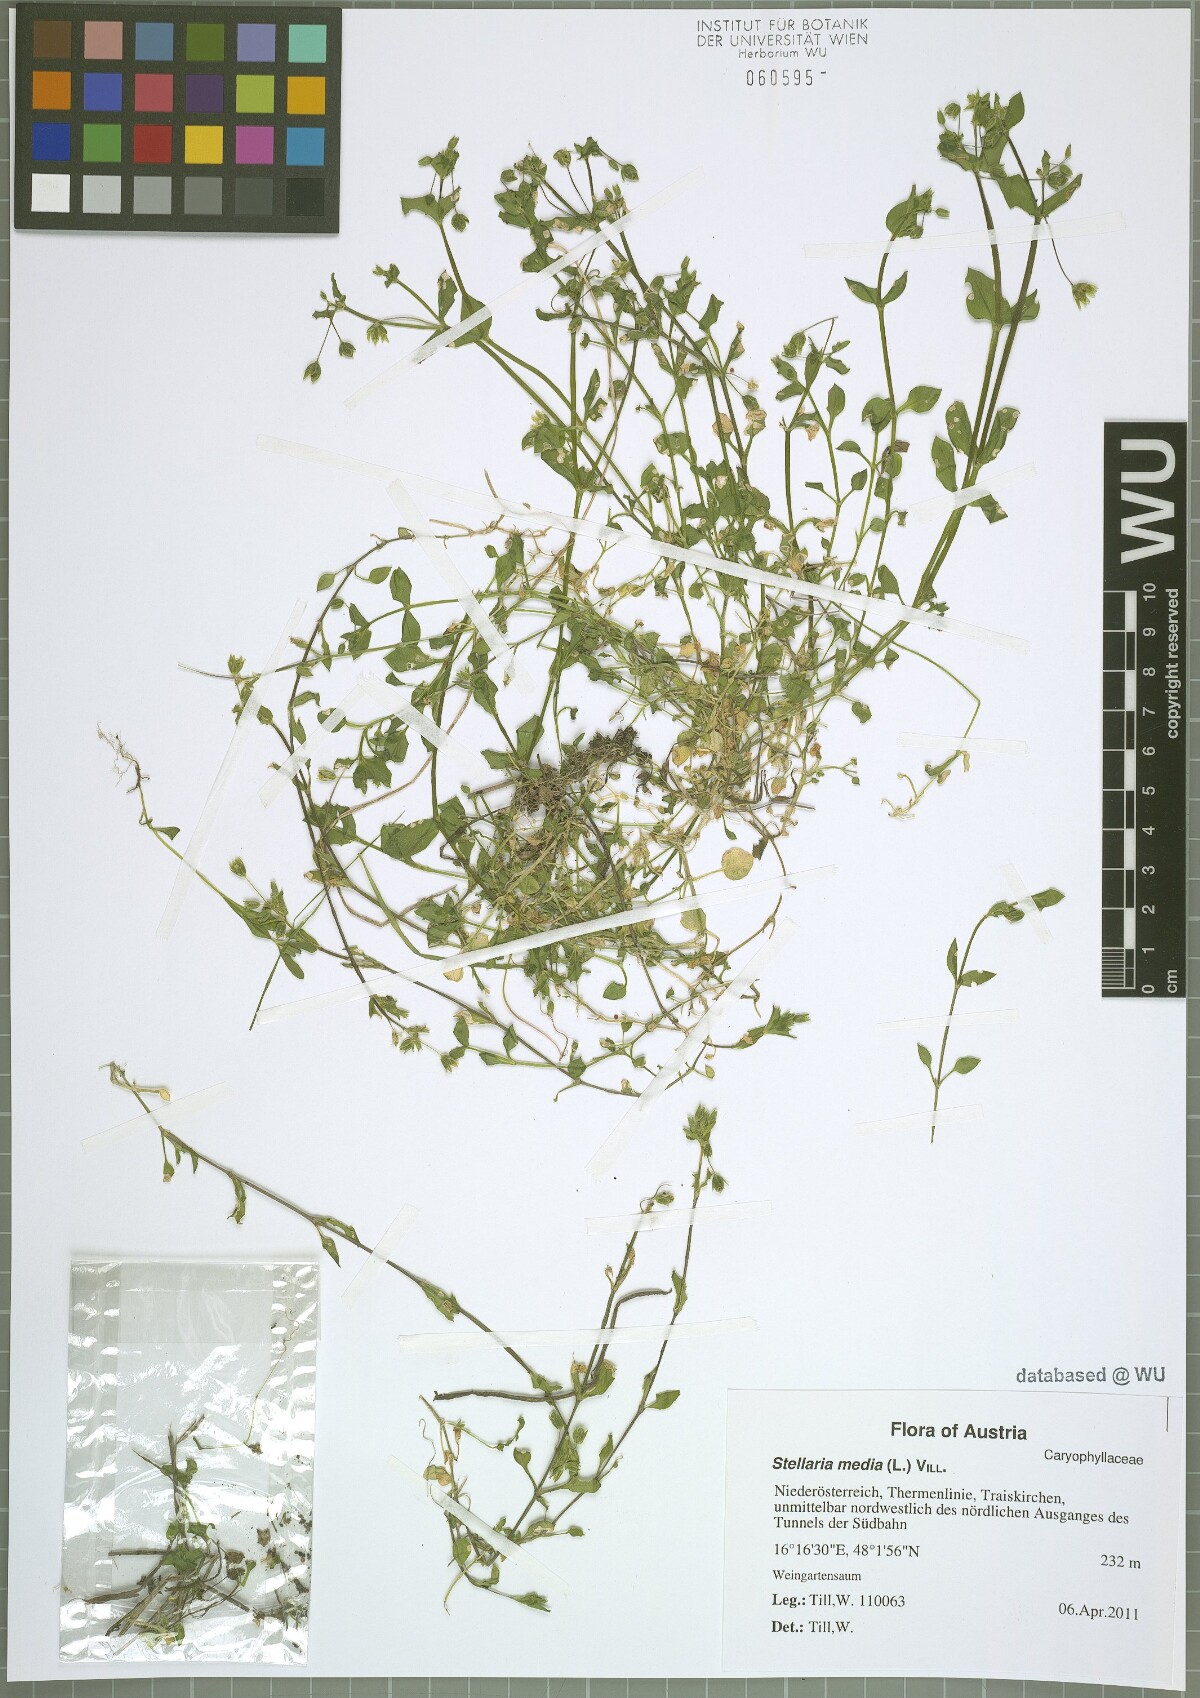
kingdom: Plantae
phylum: Tracheophyta
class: Magnoliopsida
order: Caryophyllales
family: Caryophyllaceae
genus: Stellaria
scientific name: Stellaria media
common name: Common chickweed
